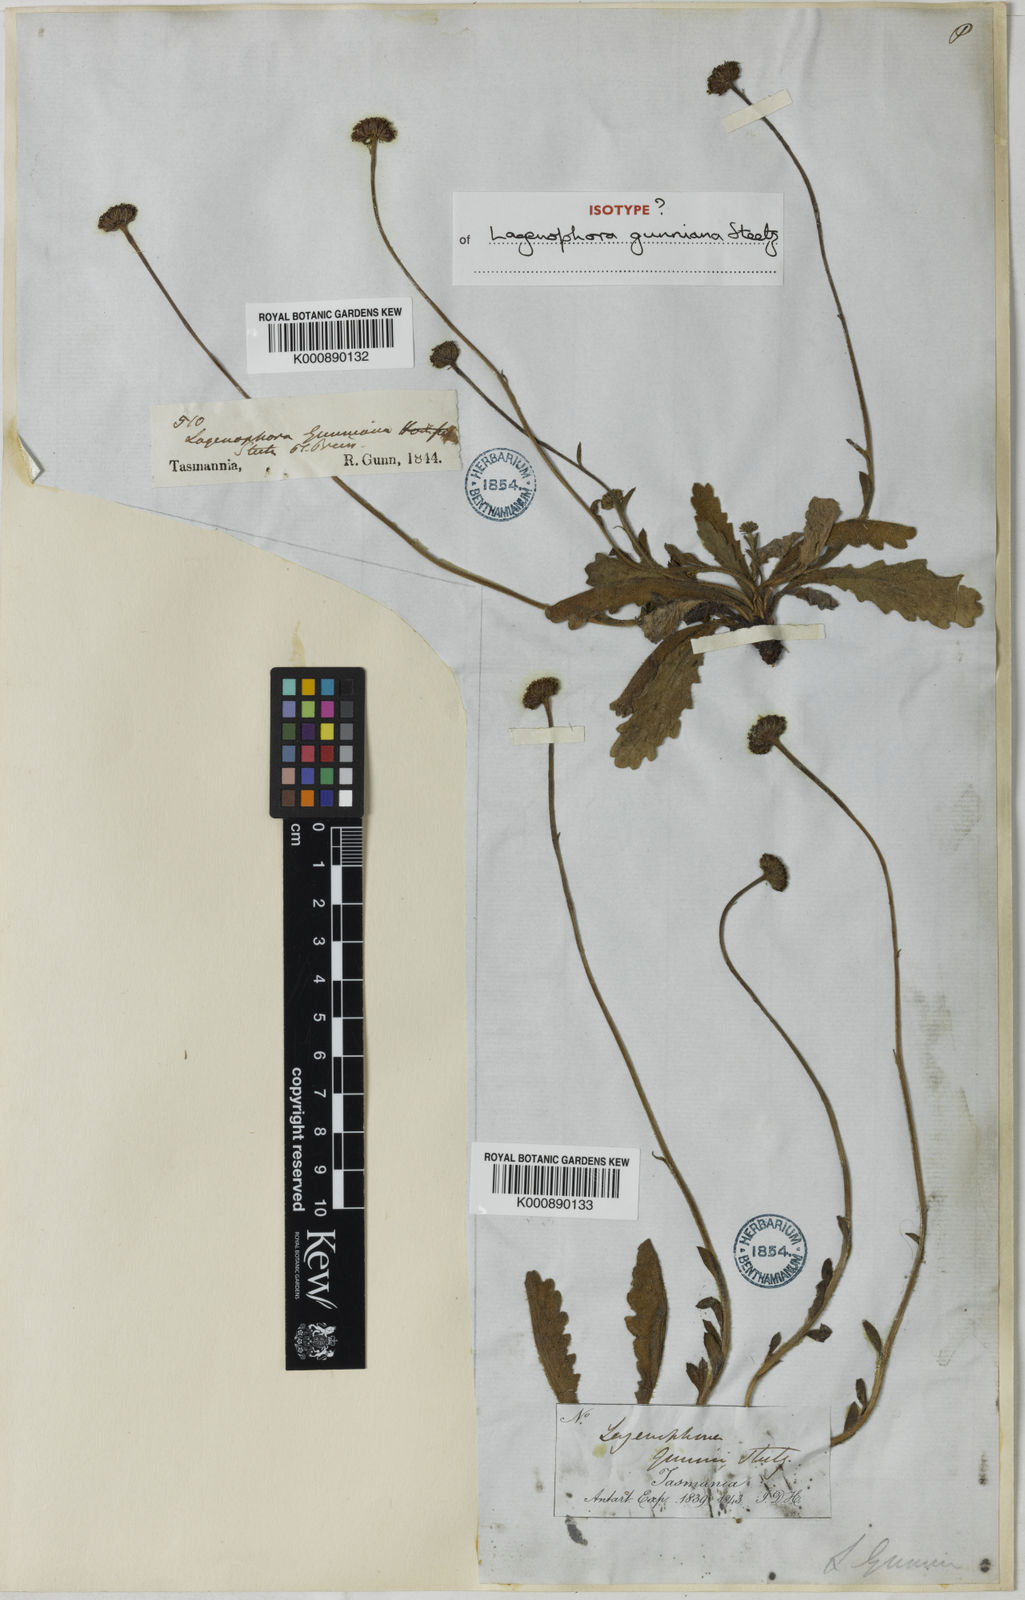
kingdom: Plantae
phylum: Tracheophyta
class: Magnoliopsida
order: Asterales
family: Asteraceae
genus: Lagenophora
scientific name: Lagenophora
